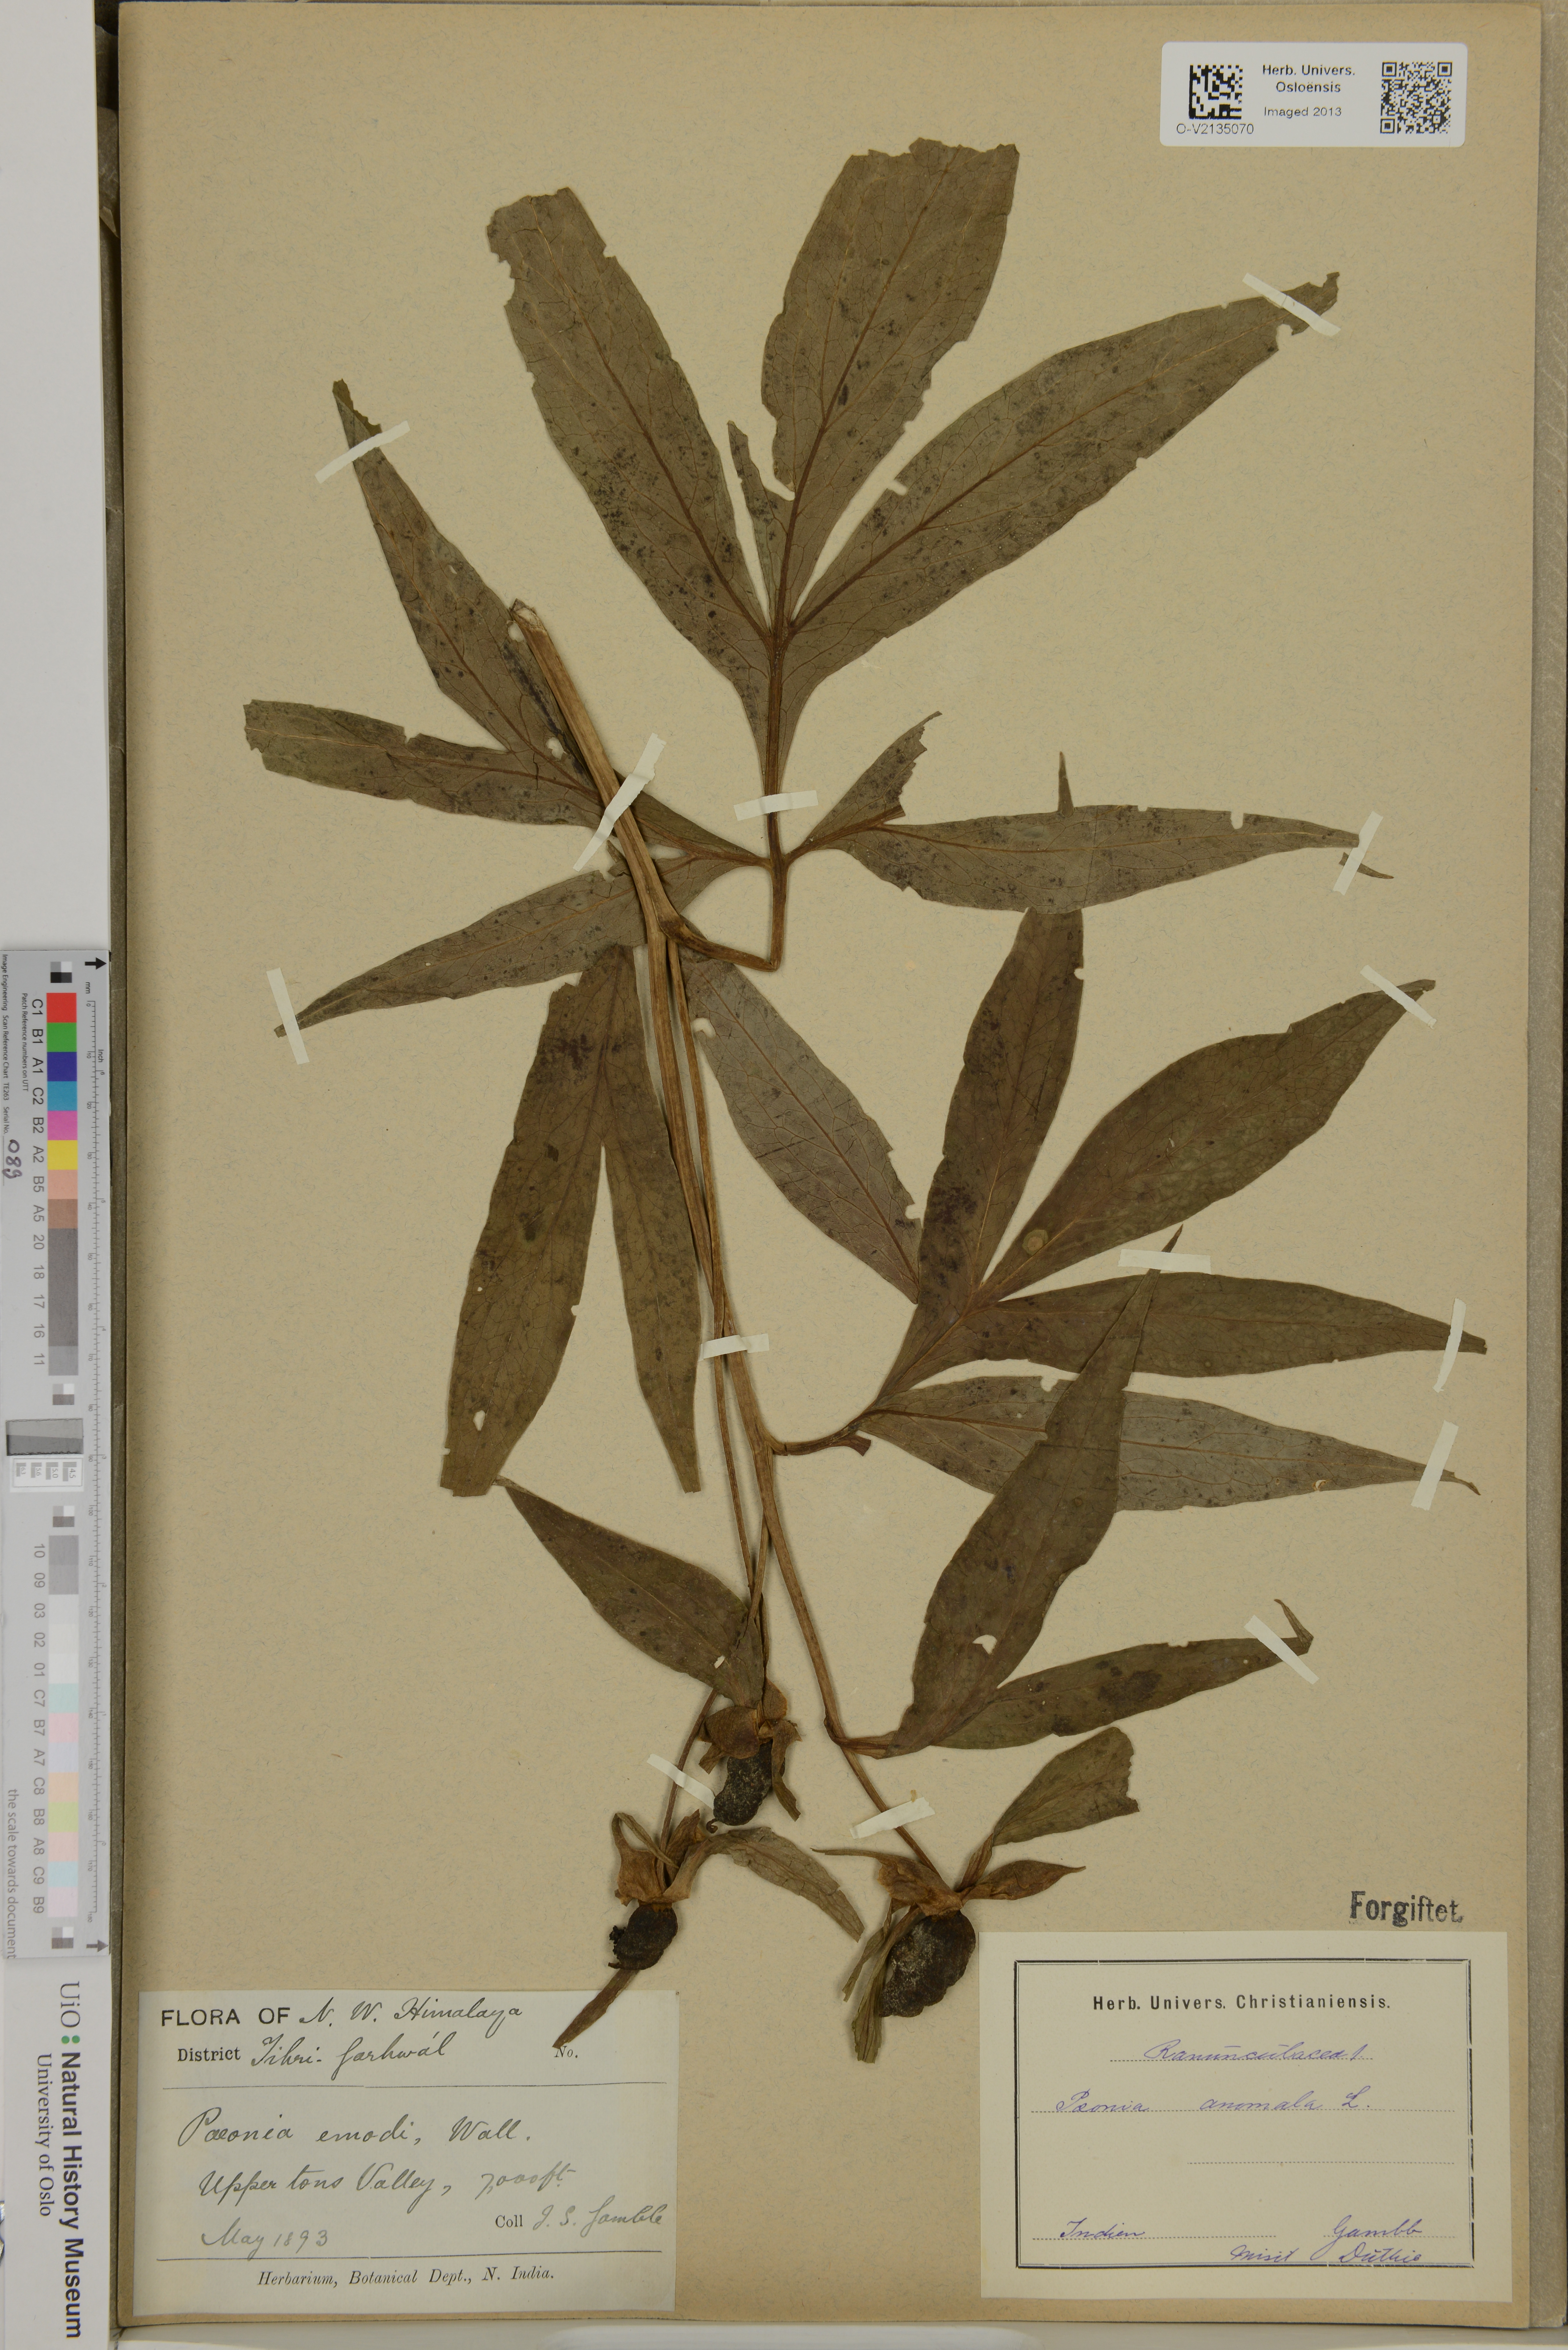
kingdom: Plantae
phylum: Tracheophyta
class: Magnoliopsida
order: Saxifragales
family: Paeoniaceae
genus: Paeonia
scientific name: Paeonia anomala
